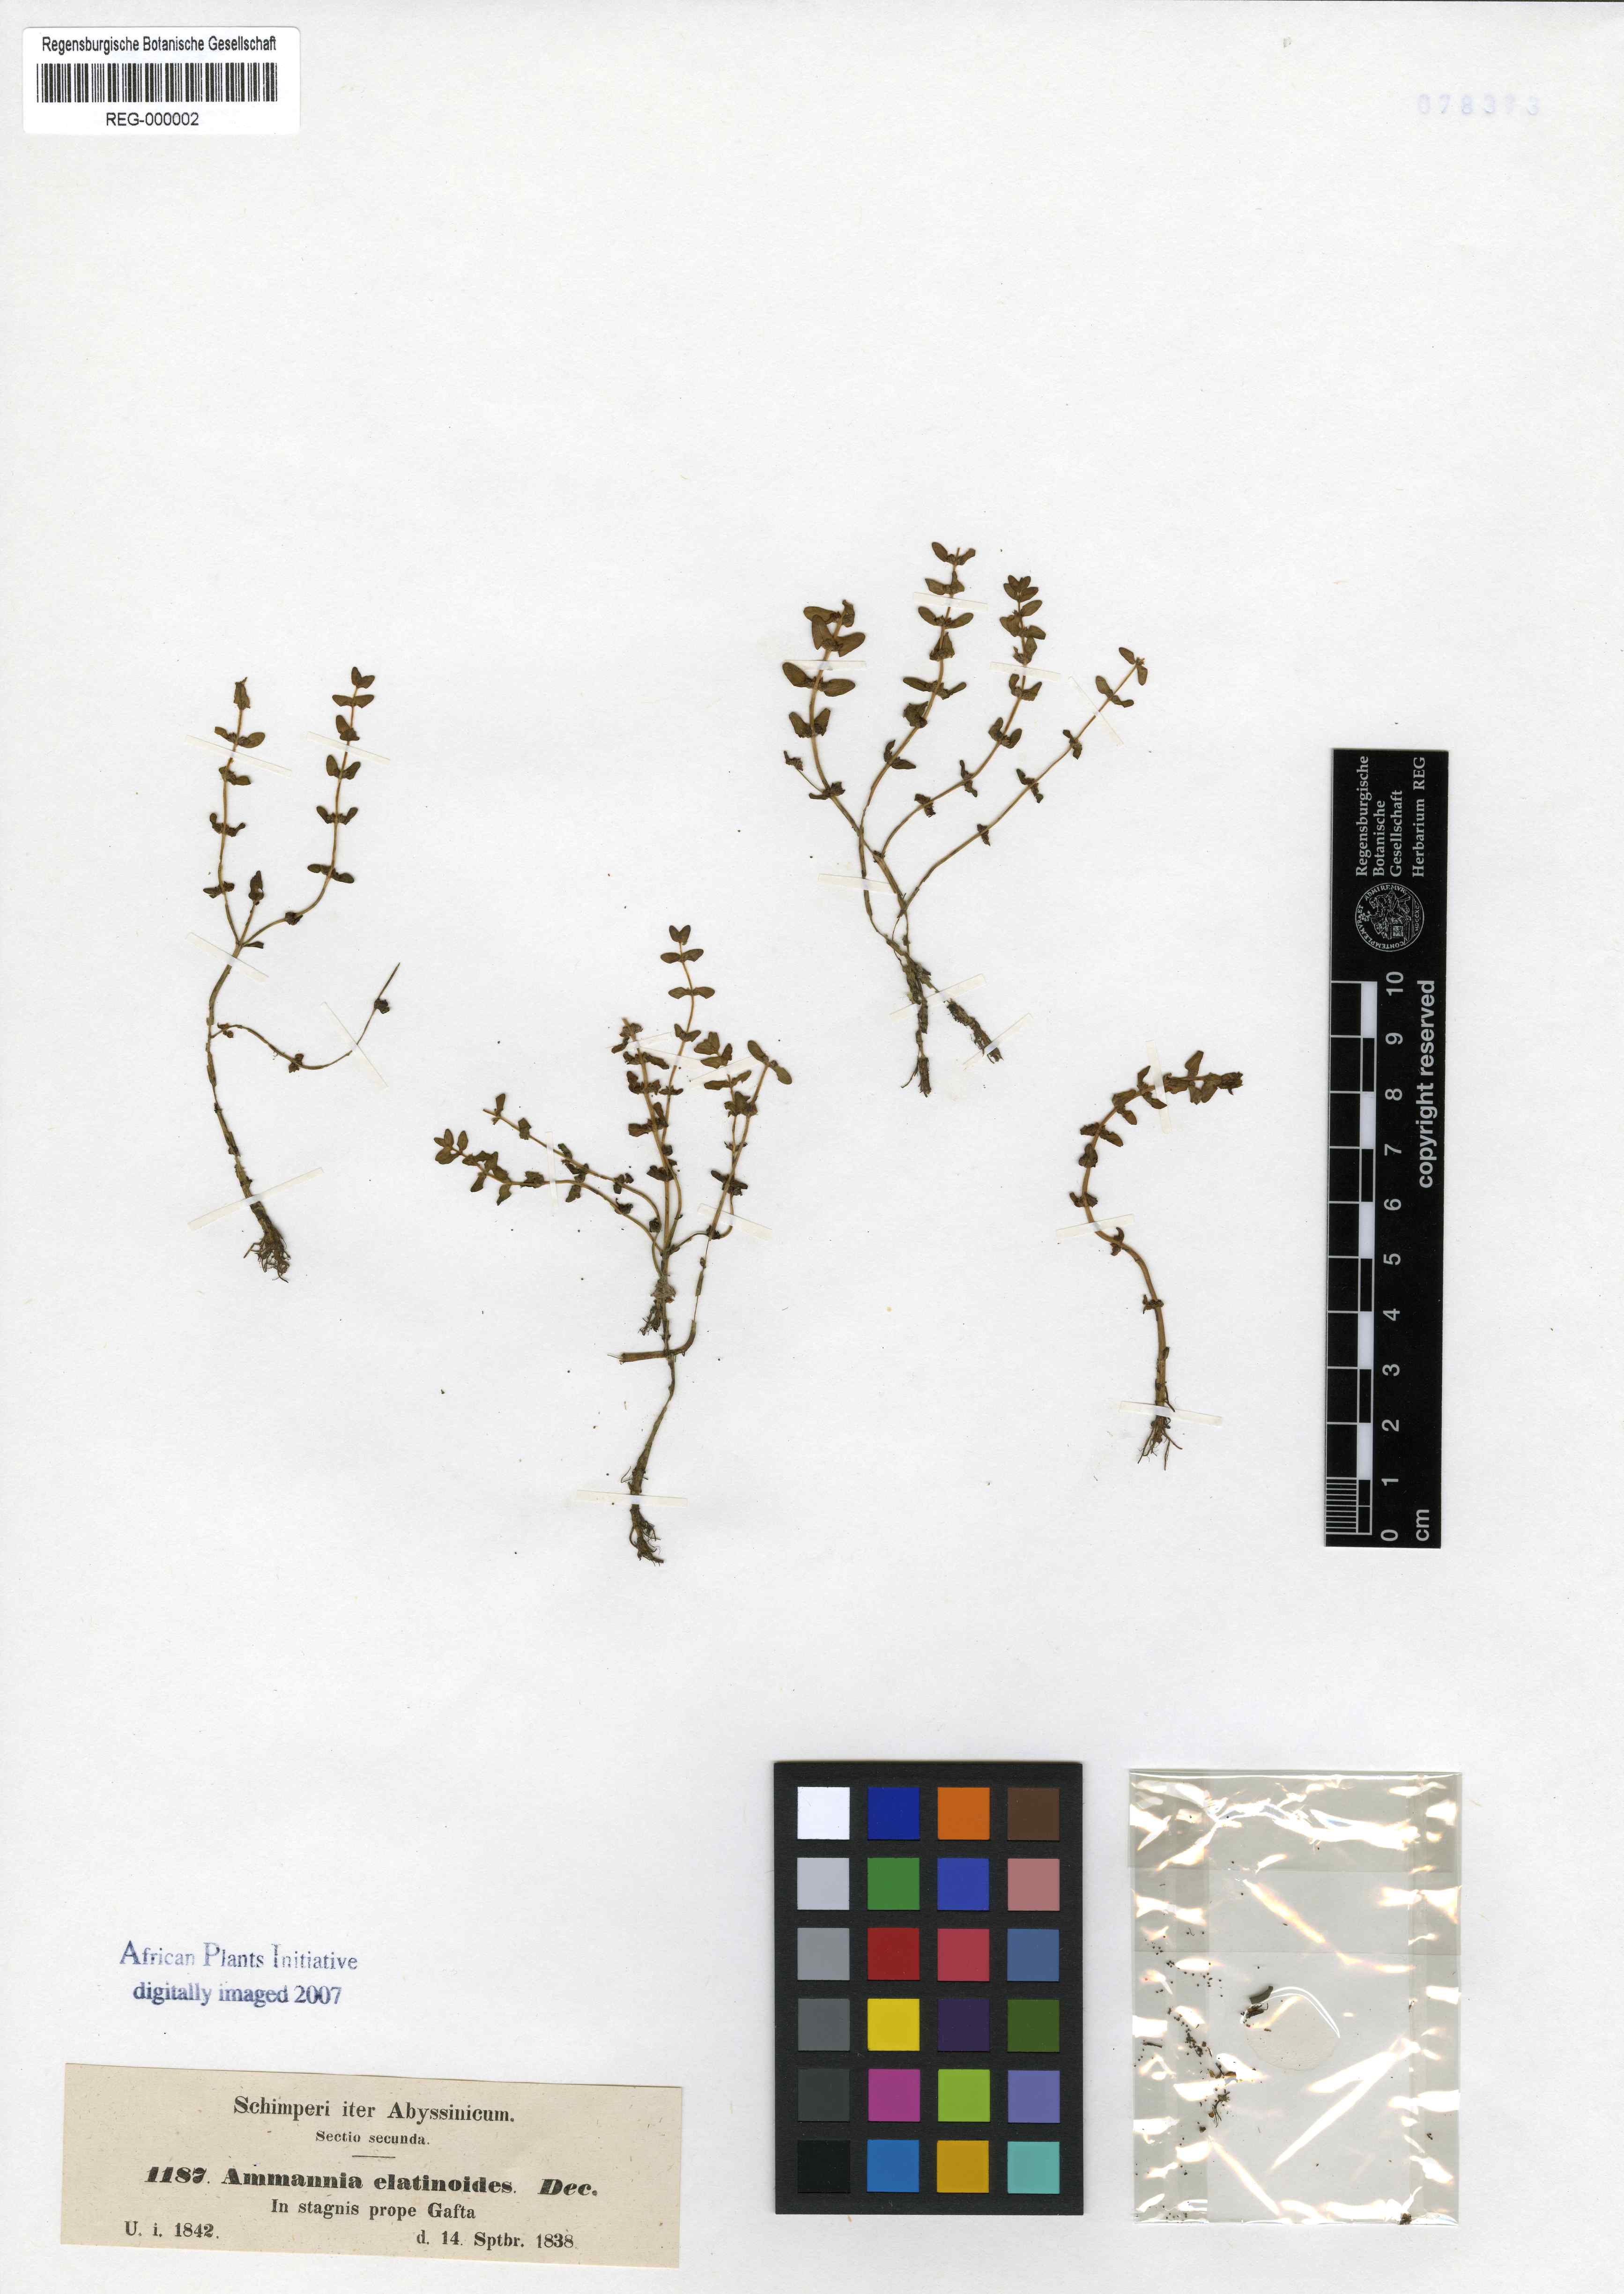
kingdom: Plantae
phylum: Tracheophyta
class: Magnoliopsida
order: Myrtales
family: Lythraceae
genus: Rotala
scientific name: Rotala elatinoides
